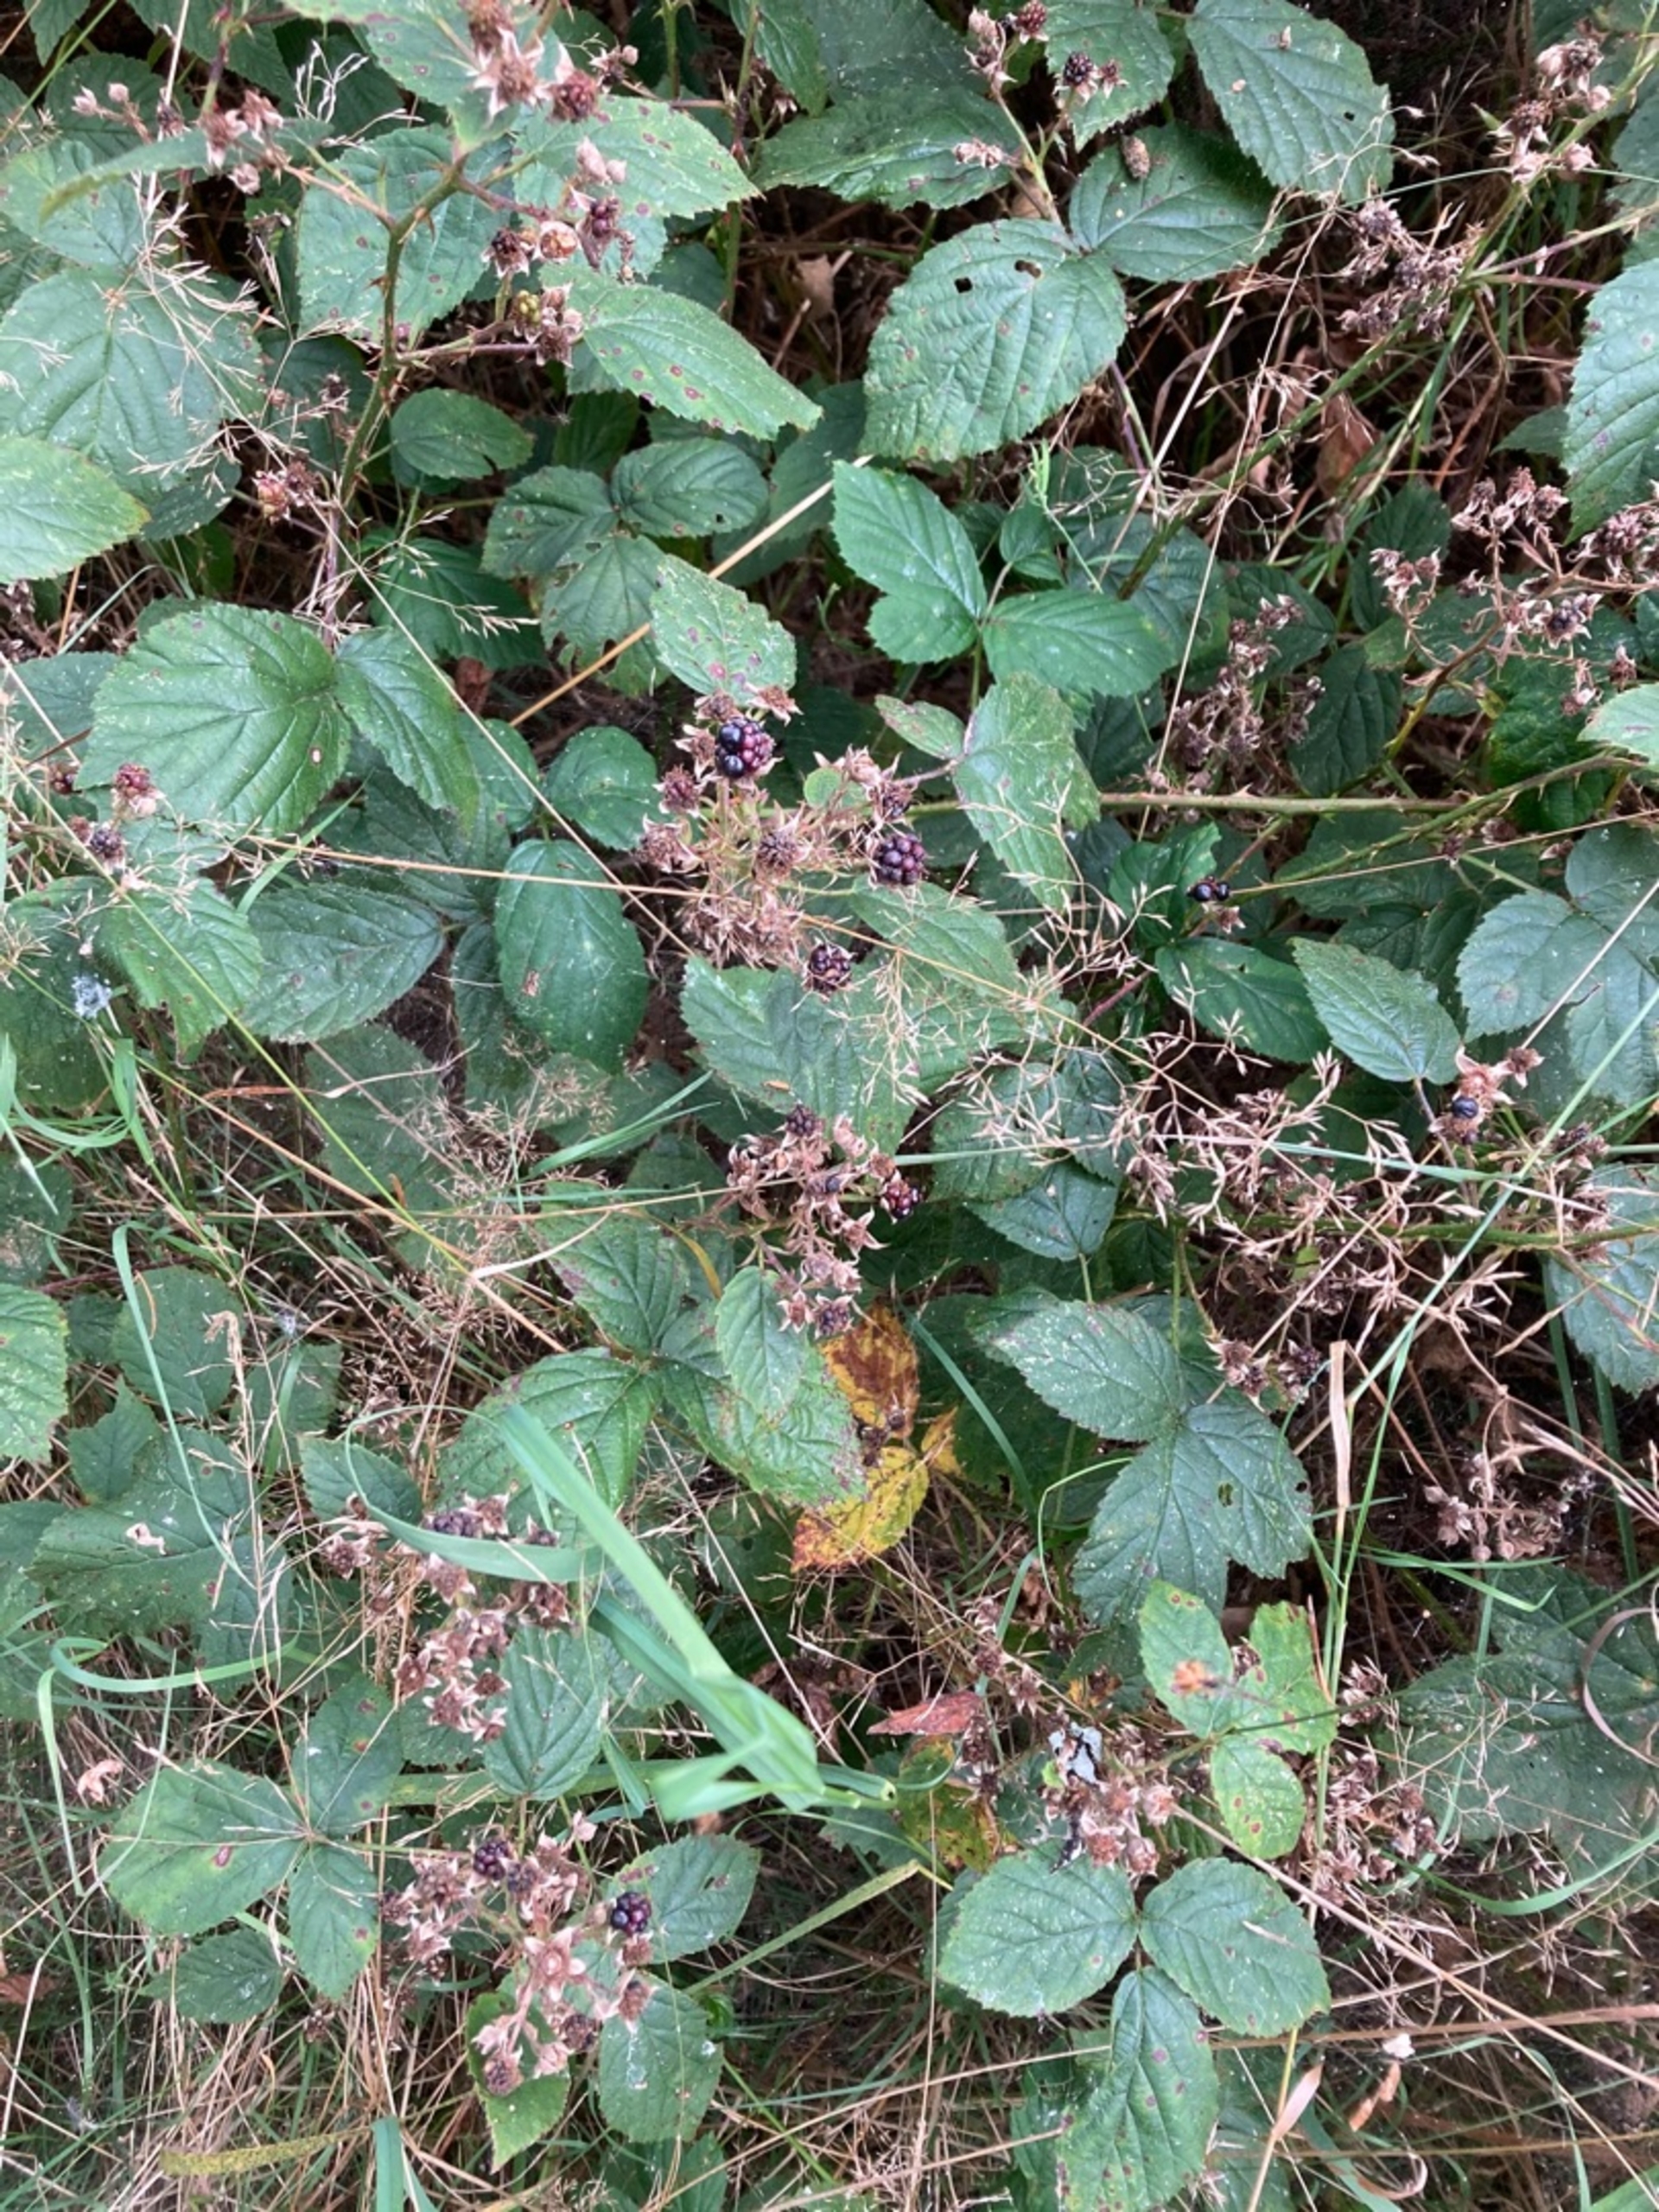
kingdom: Plantae
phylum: Tracheophyta
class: Magnoliopsida
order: Rosales
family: Rosaceae
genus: Rubus
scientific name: Rubus
